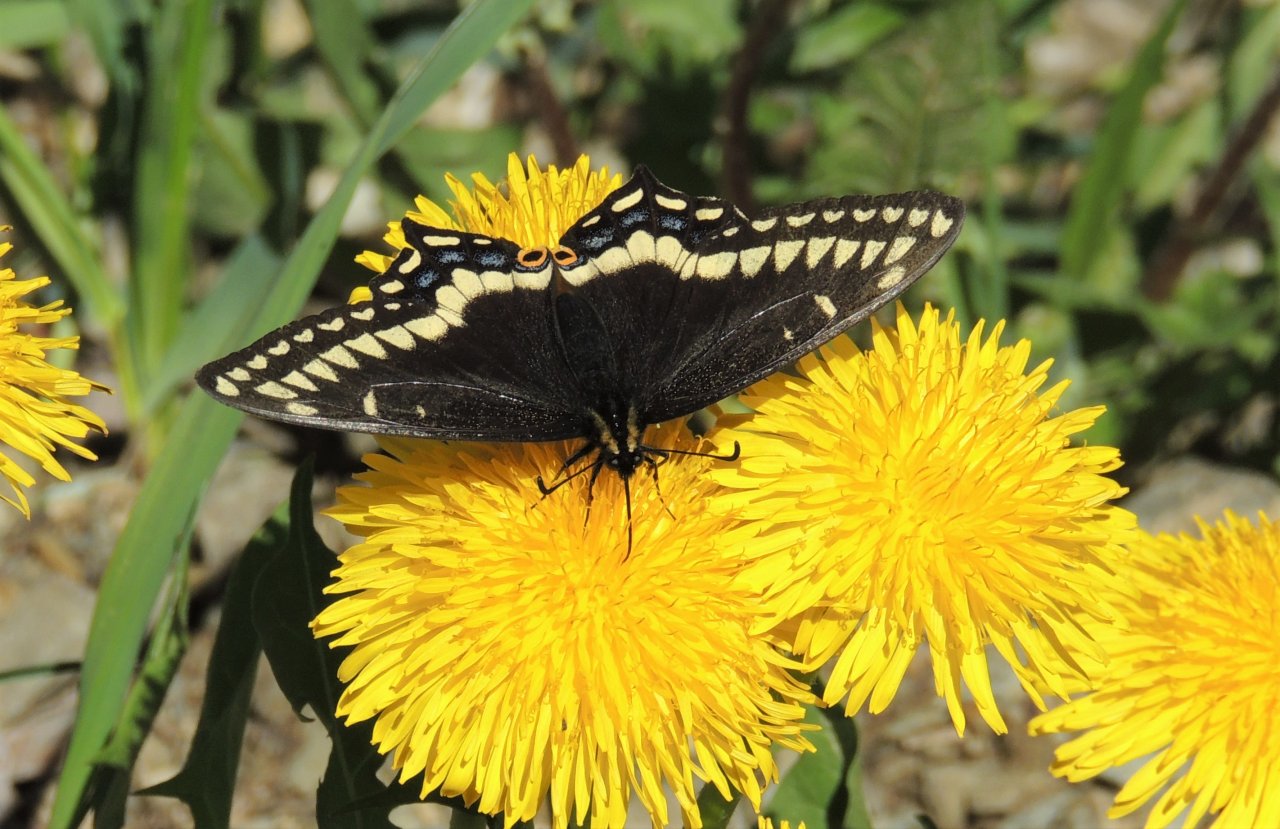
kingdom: Animalia
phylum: Arthropoda
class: Insecta
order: Lepidoptera
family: Papilionidae
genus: Papilio
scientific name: Papilio indra
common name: Indra Swallowtail
